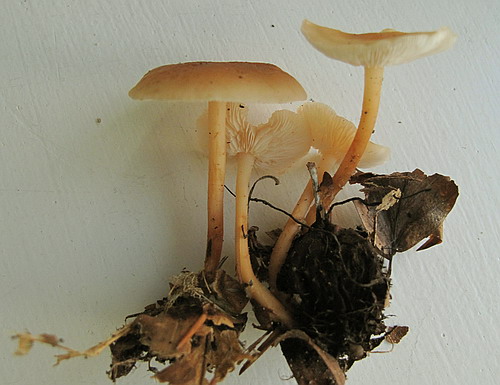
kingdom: Fungi
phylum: Basidiomycota
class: Agaricomycetes
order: Agaricales
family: Omphalotaceae
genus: Gymnopus
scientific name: Gymnopus dryophilus
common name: løv-fladhat
